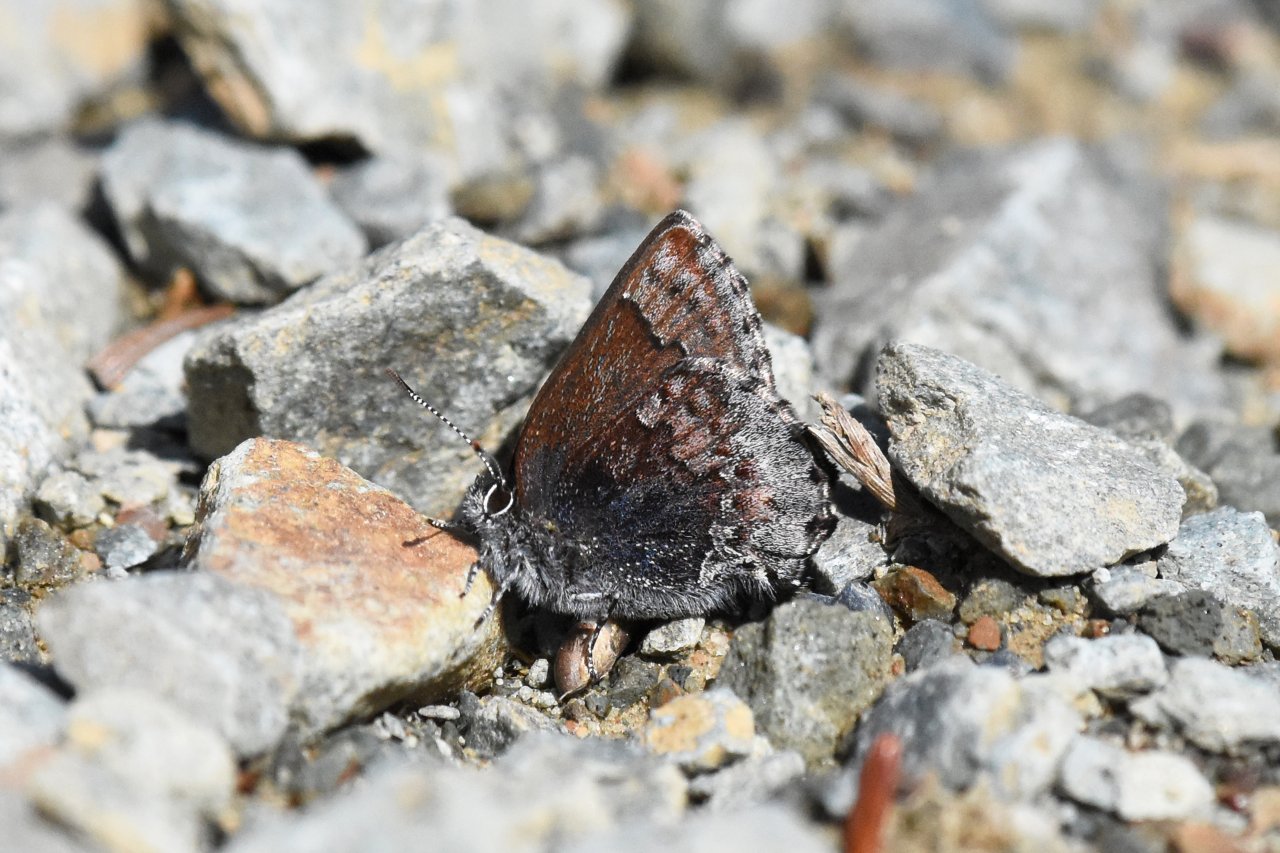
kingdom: Animalia
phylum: Arthropoda
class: Insecta
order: Lepidoptera
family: Lycaenidae
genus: Callophrys
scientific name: Callophrys polios
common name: Hoary Elfin
